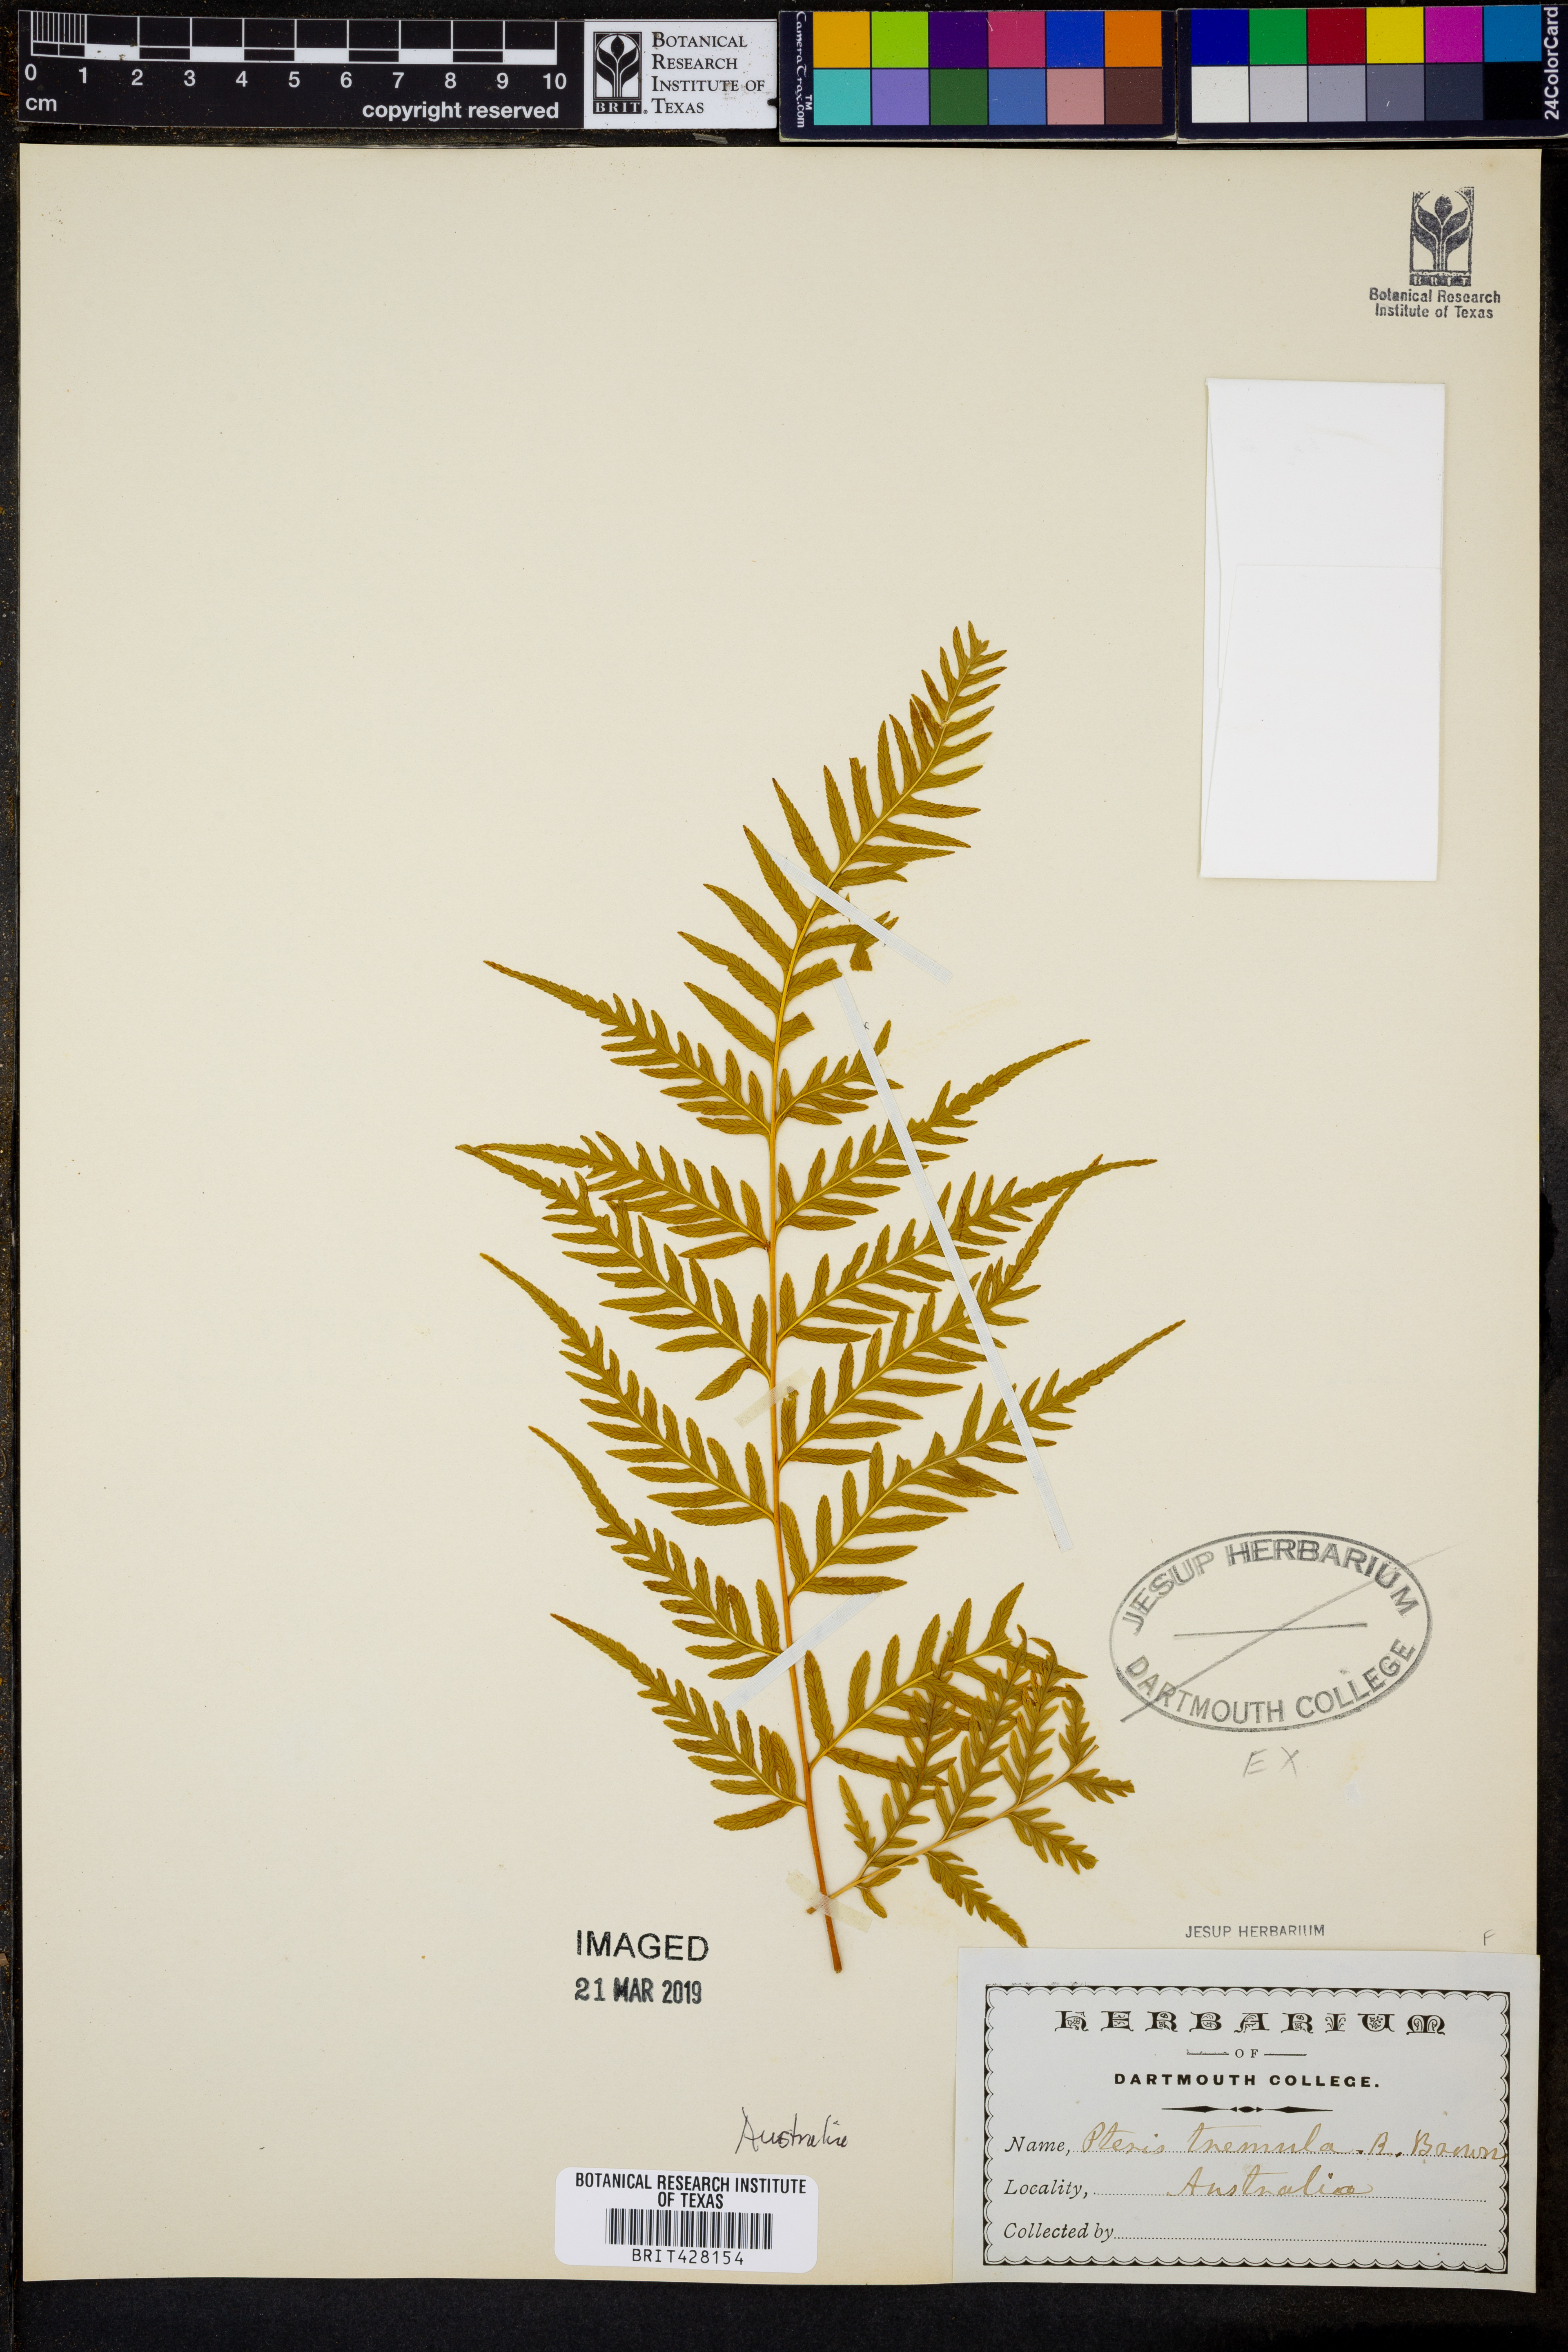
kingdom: Plantae
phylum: Tracheophyta
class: Polypodiopsida
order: Polypodiales
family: Pteridaceae
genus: Pteris
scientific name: Pteris tremula
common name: Australian brake
